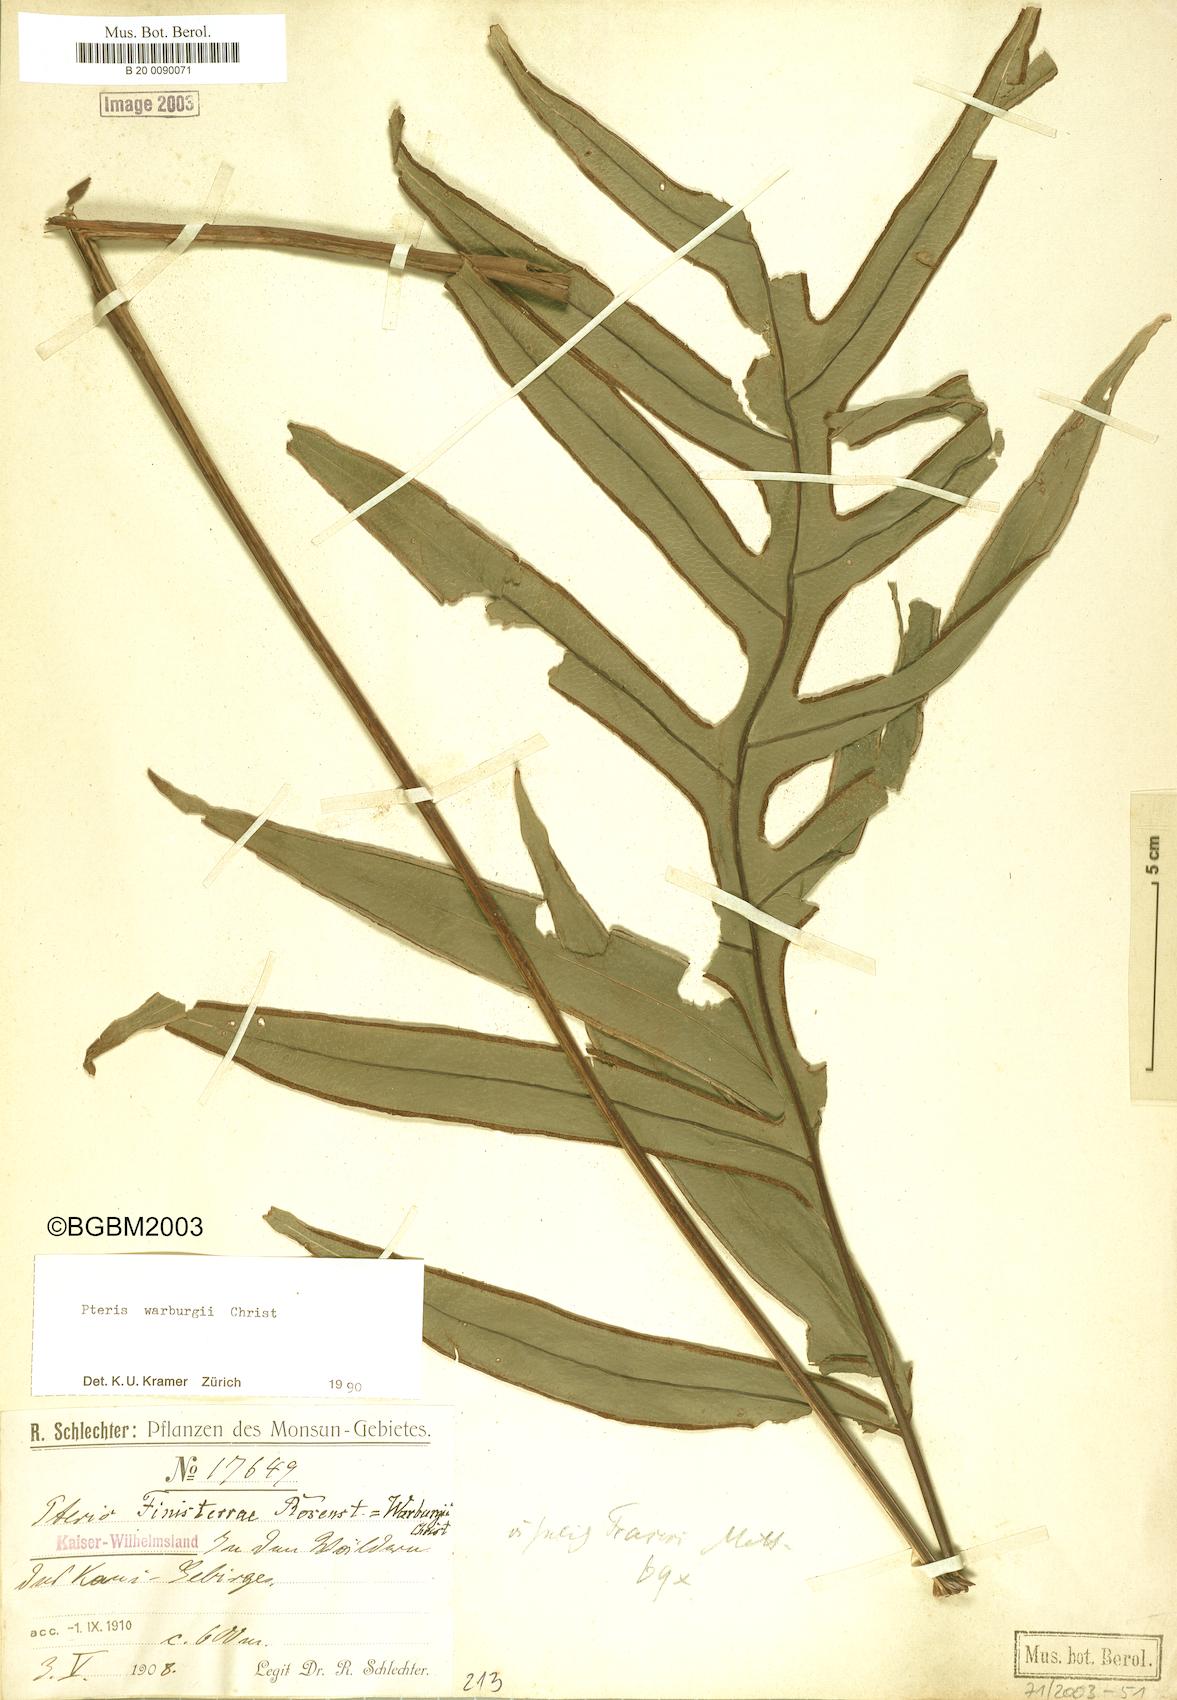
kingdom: Plantae
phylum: Tracheophyta
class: Polypodiopsida
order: Polypodiales
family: Pteridaceae
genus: Pteris
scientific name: Pteris warburgii
